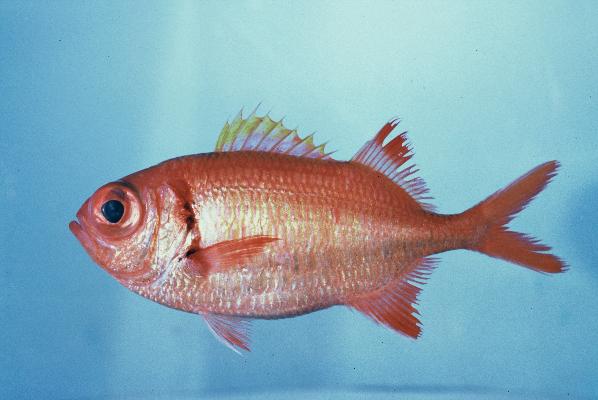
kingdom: Animalia
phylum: Chordata
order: Beryciformes
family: Holocentridae
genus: Myripristis
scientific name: Myripristis kuntee
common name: Epaulette soldierfish
